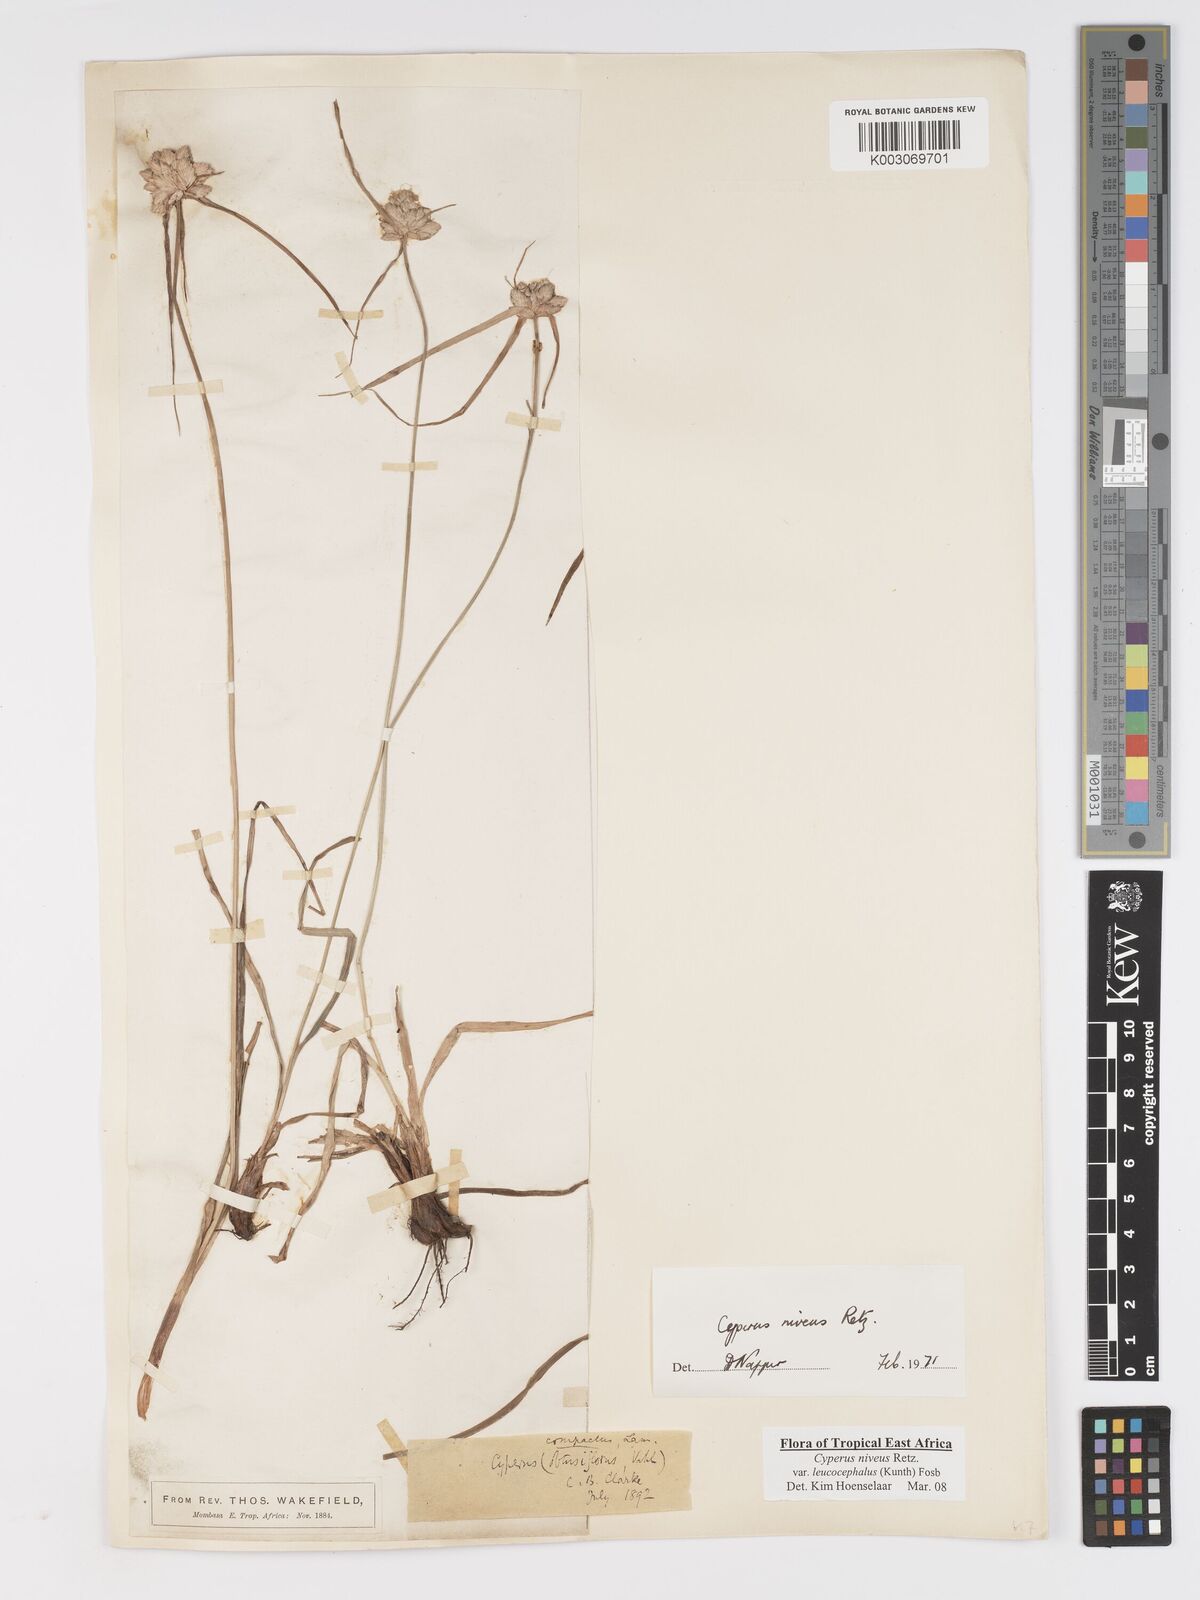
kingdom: Plantae
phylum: Tracheophyta
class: Liliopsida
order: Poales
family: Cyperaceae
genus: Cyperus
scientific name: Cyperus niveus
